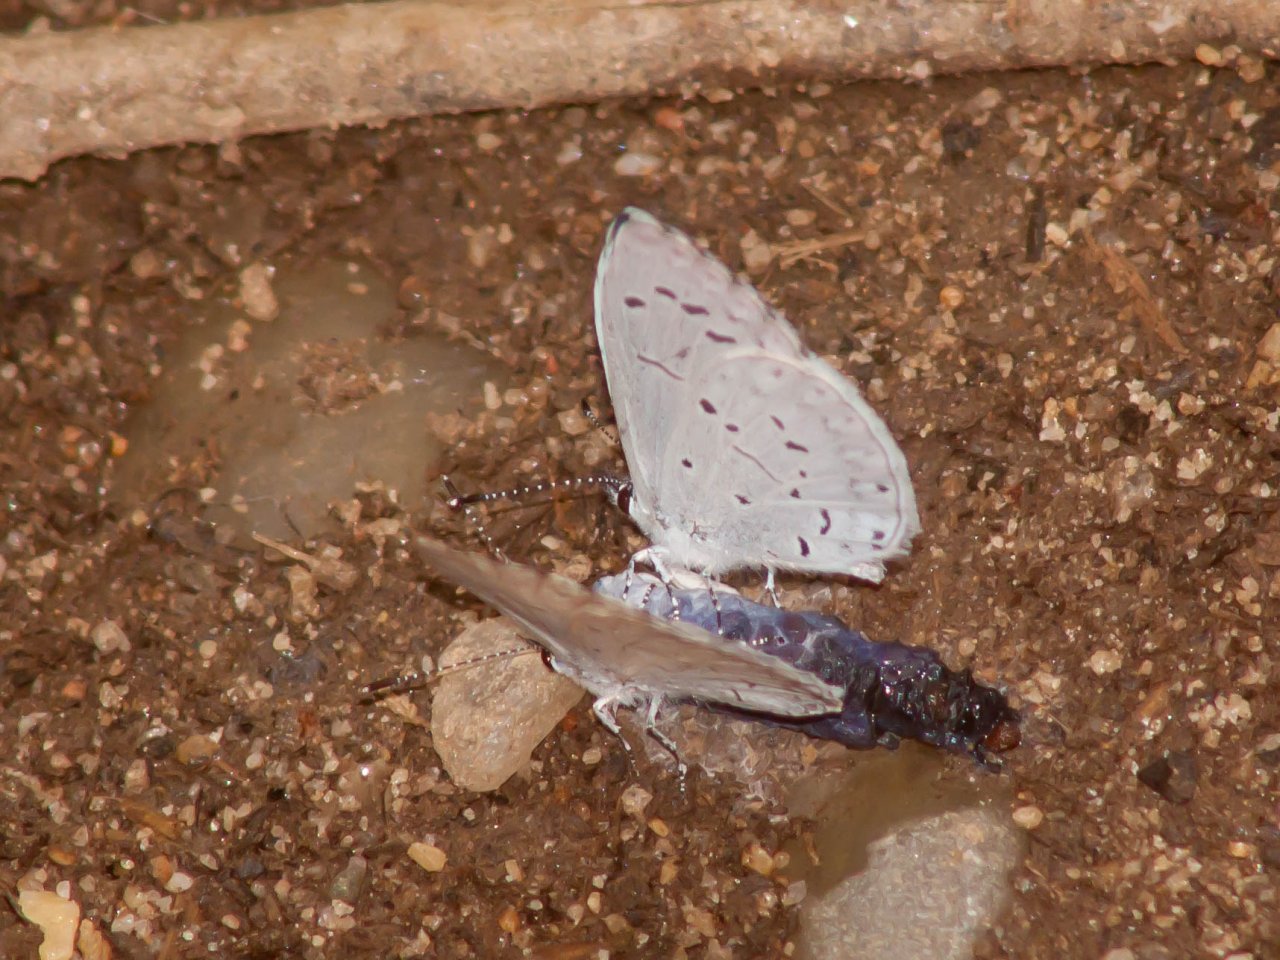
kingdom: Animalia
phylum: Arthropoda
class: Insecta
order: Lepidoptera
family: Lycaenidae
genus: Cyaniris
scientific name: Cyaniris neglecta
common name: Summer Azure
